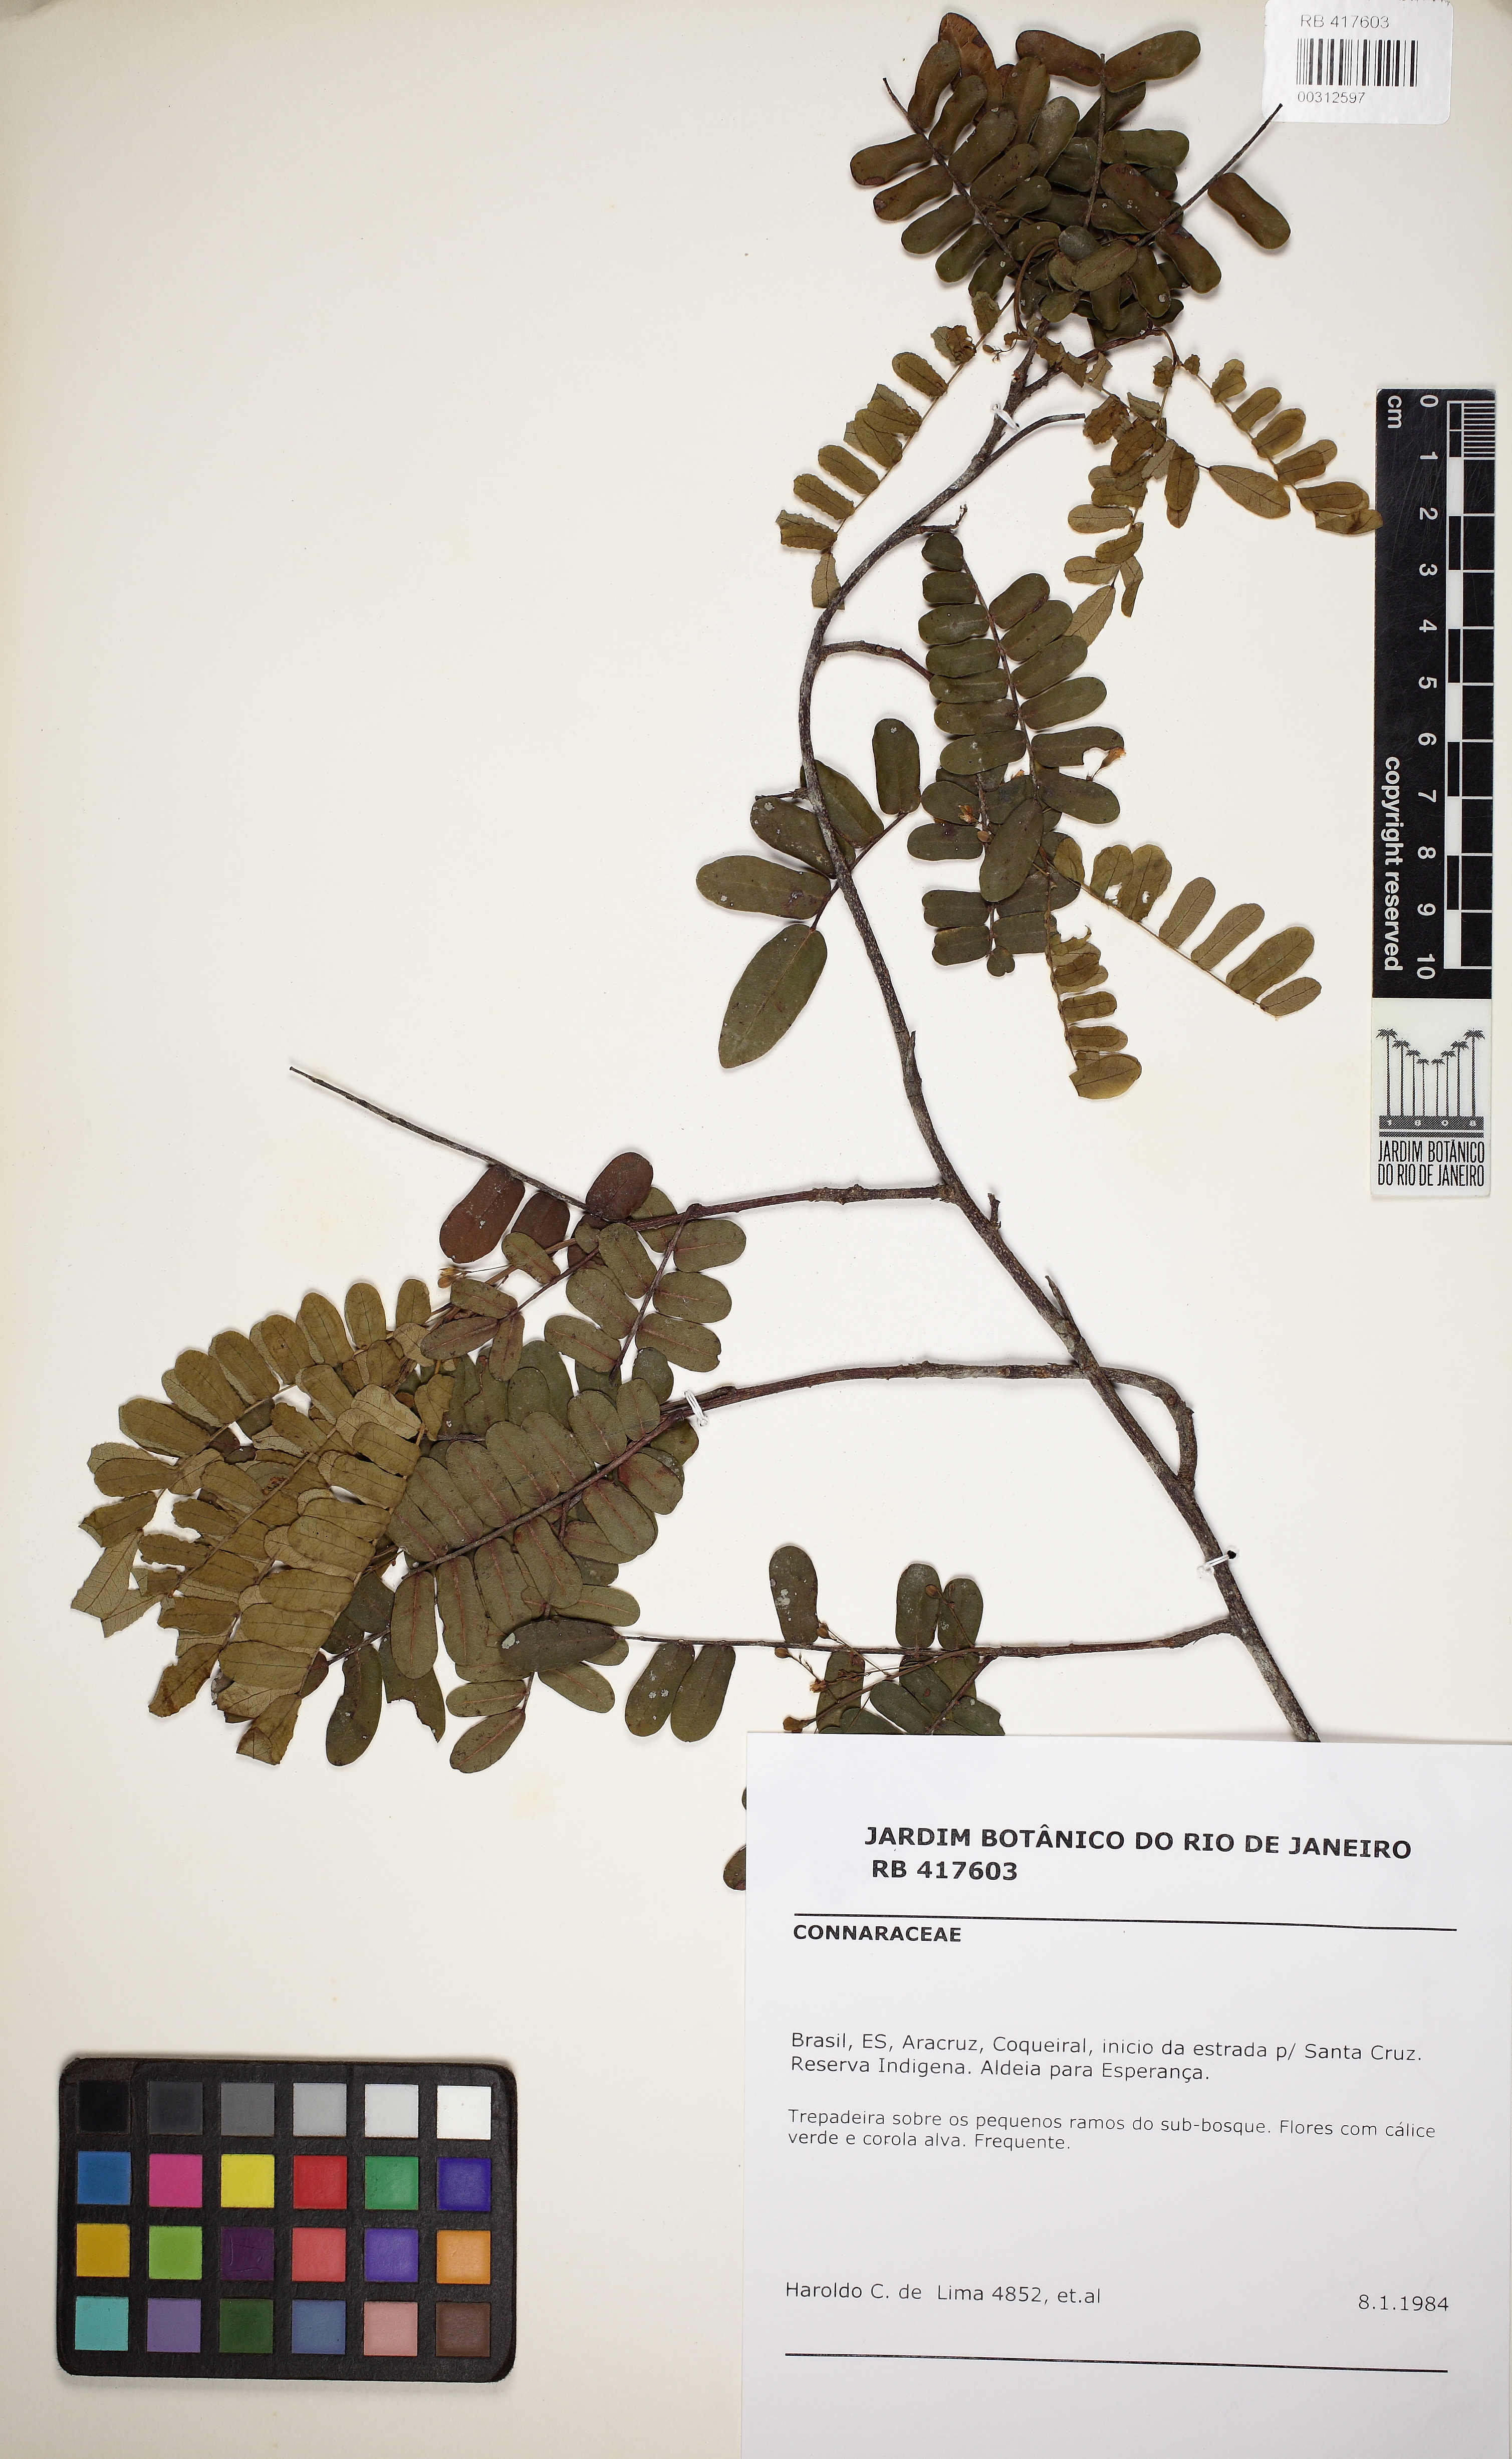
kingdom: Plantae
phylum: Tracheophyta
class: Magnoliopsida
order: Oxalidales
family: Connaraceae
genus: Rourea
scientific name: Rourea bahiensis
